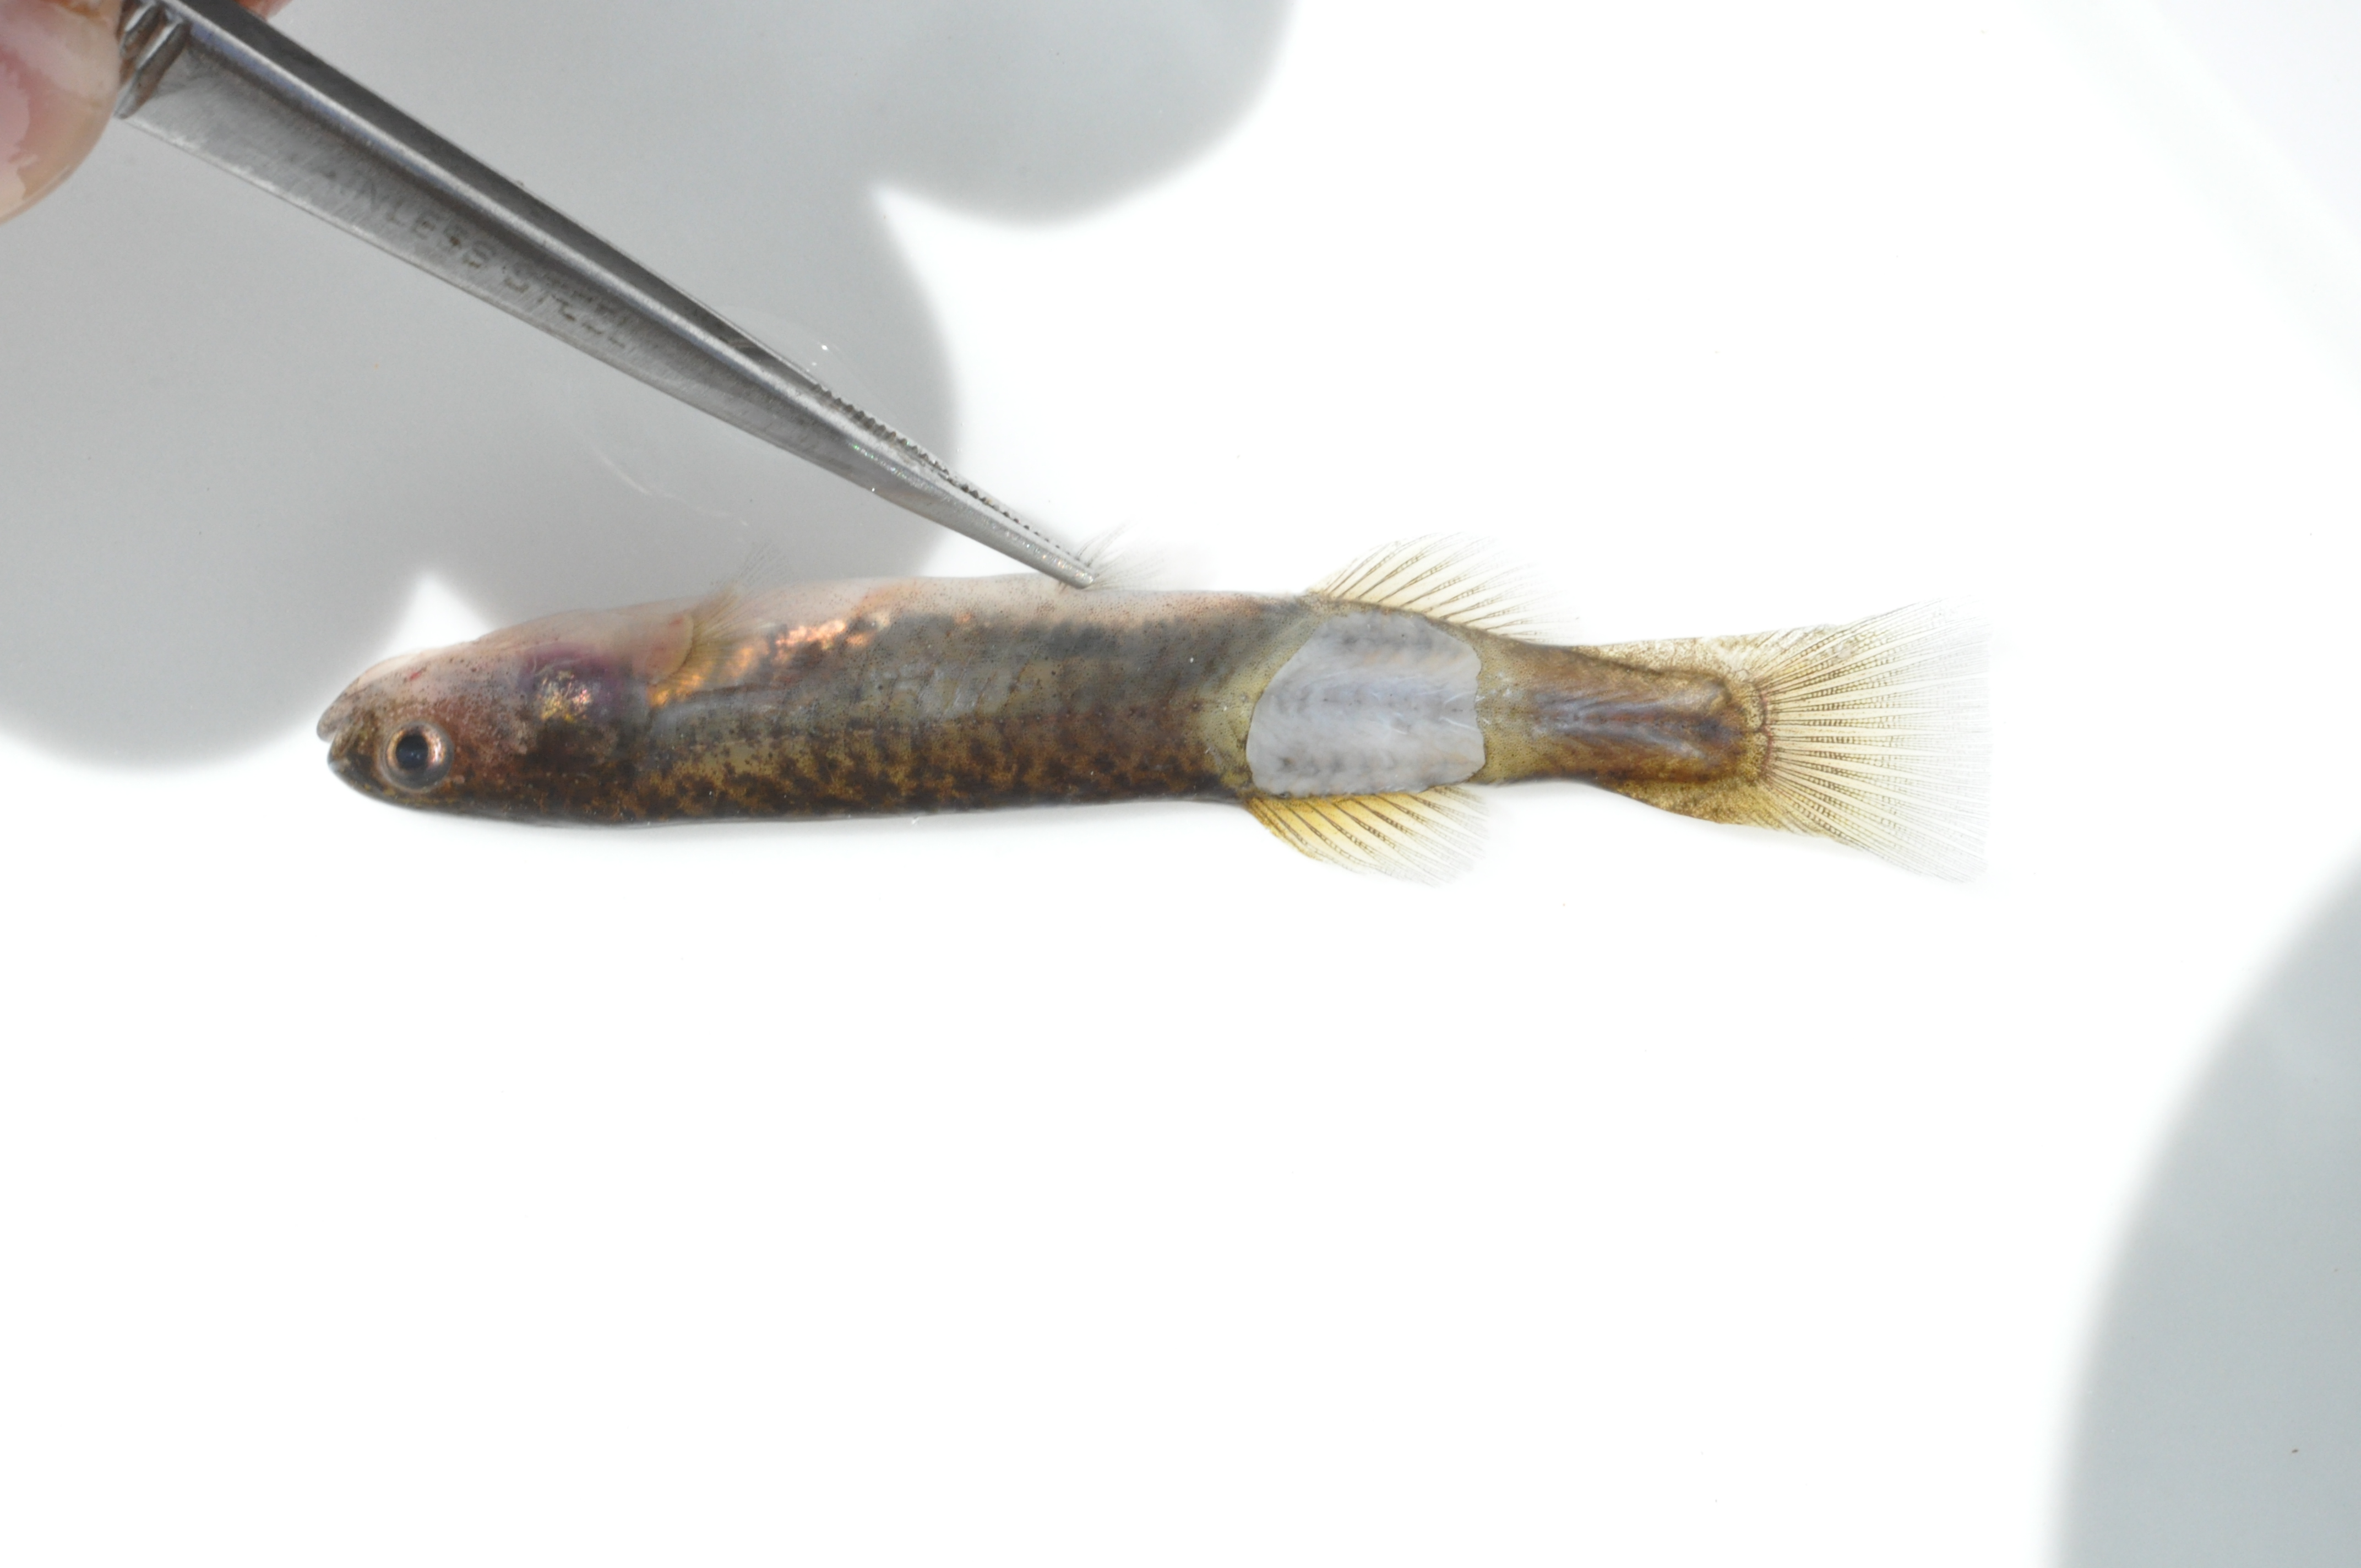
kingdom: Animalia
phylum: Chordata
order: Osmeriformes
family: Galaxiidae
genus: Galaxias
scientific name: Galaxias zebratus
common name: Cape galaxias
